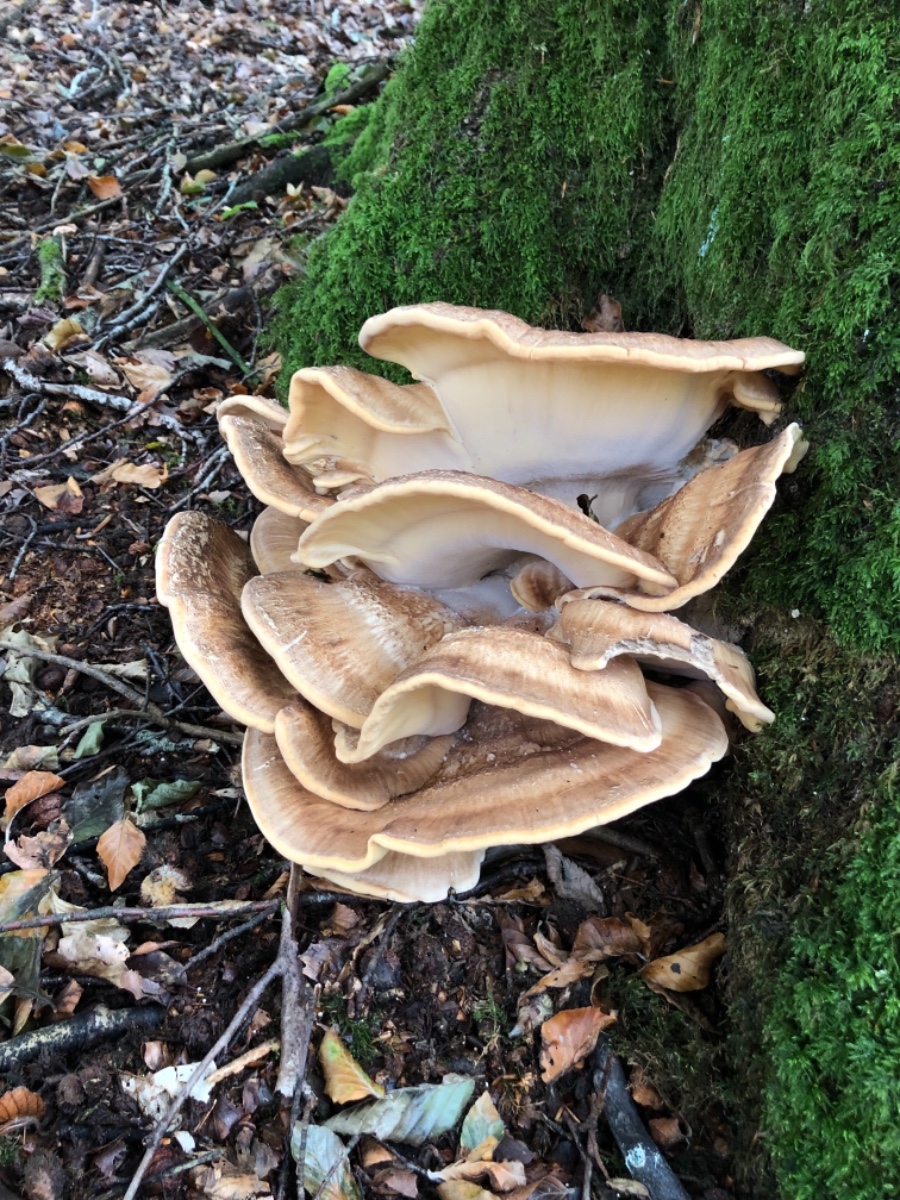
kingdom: Fungi
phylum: Basidiomycota
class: Agaricomycetes
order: Polyporales
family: Meripilaceae
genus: Meripilus
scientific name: Meripilus giganteus
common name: kæmpeporesvamp
